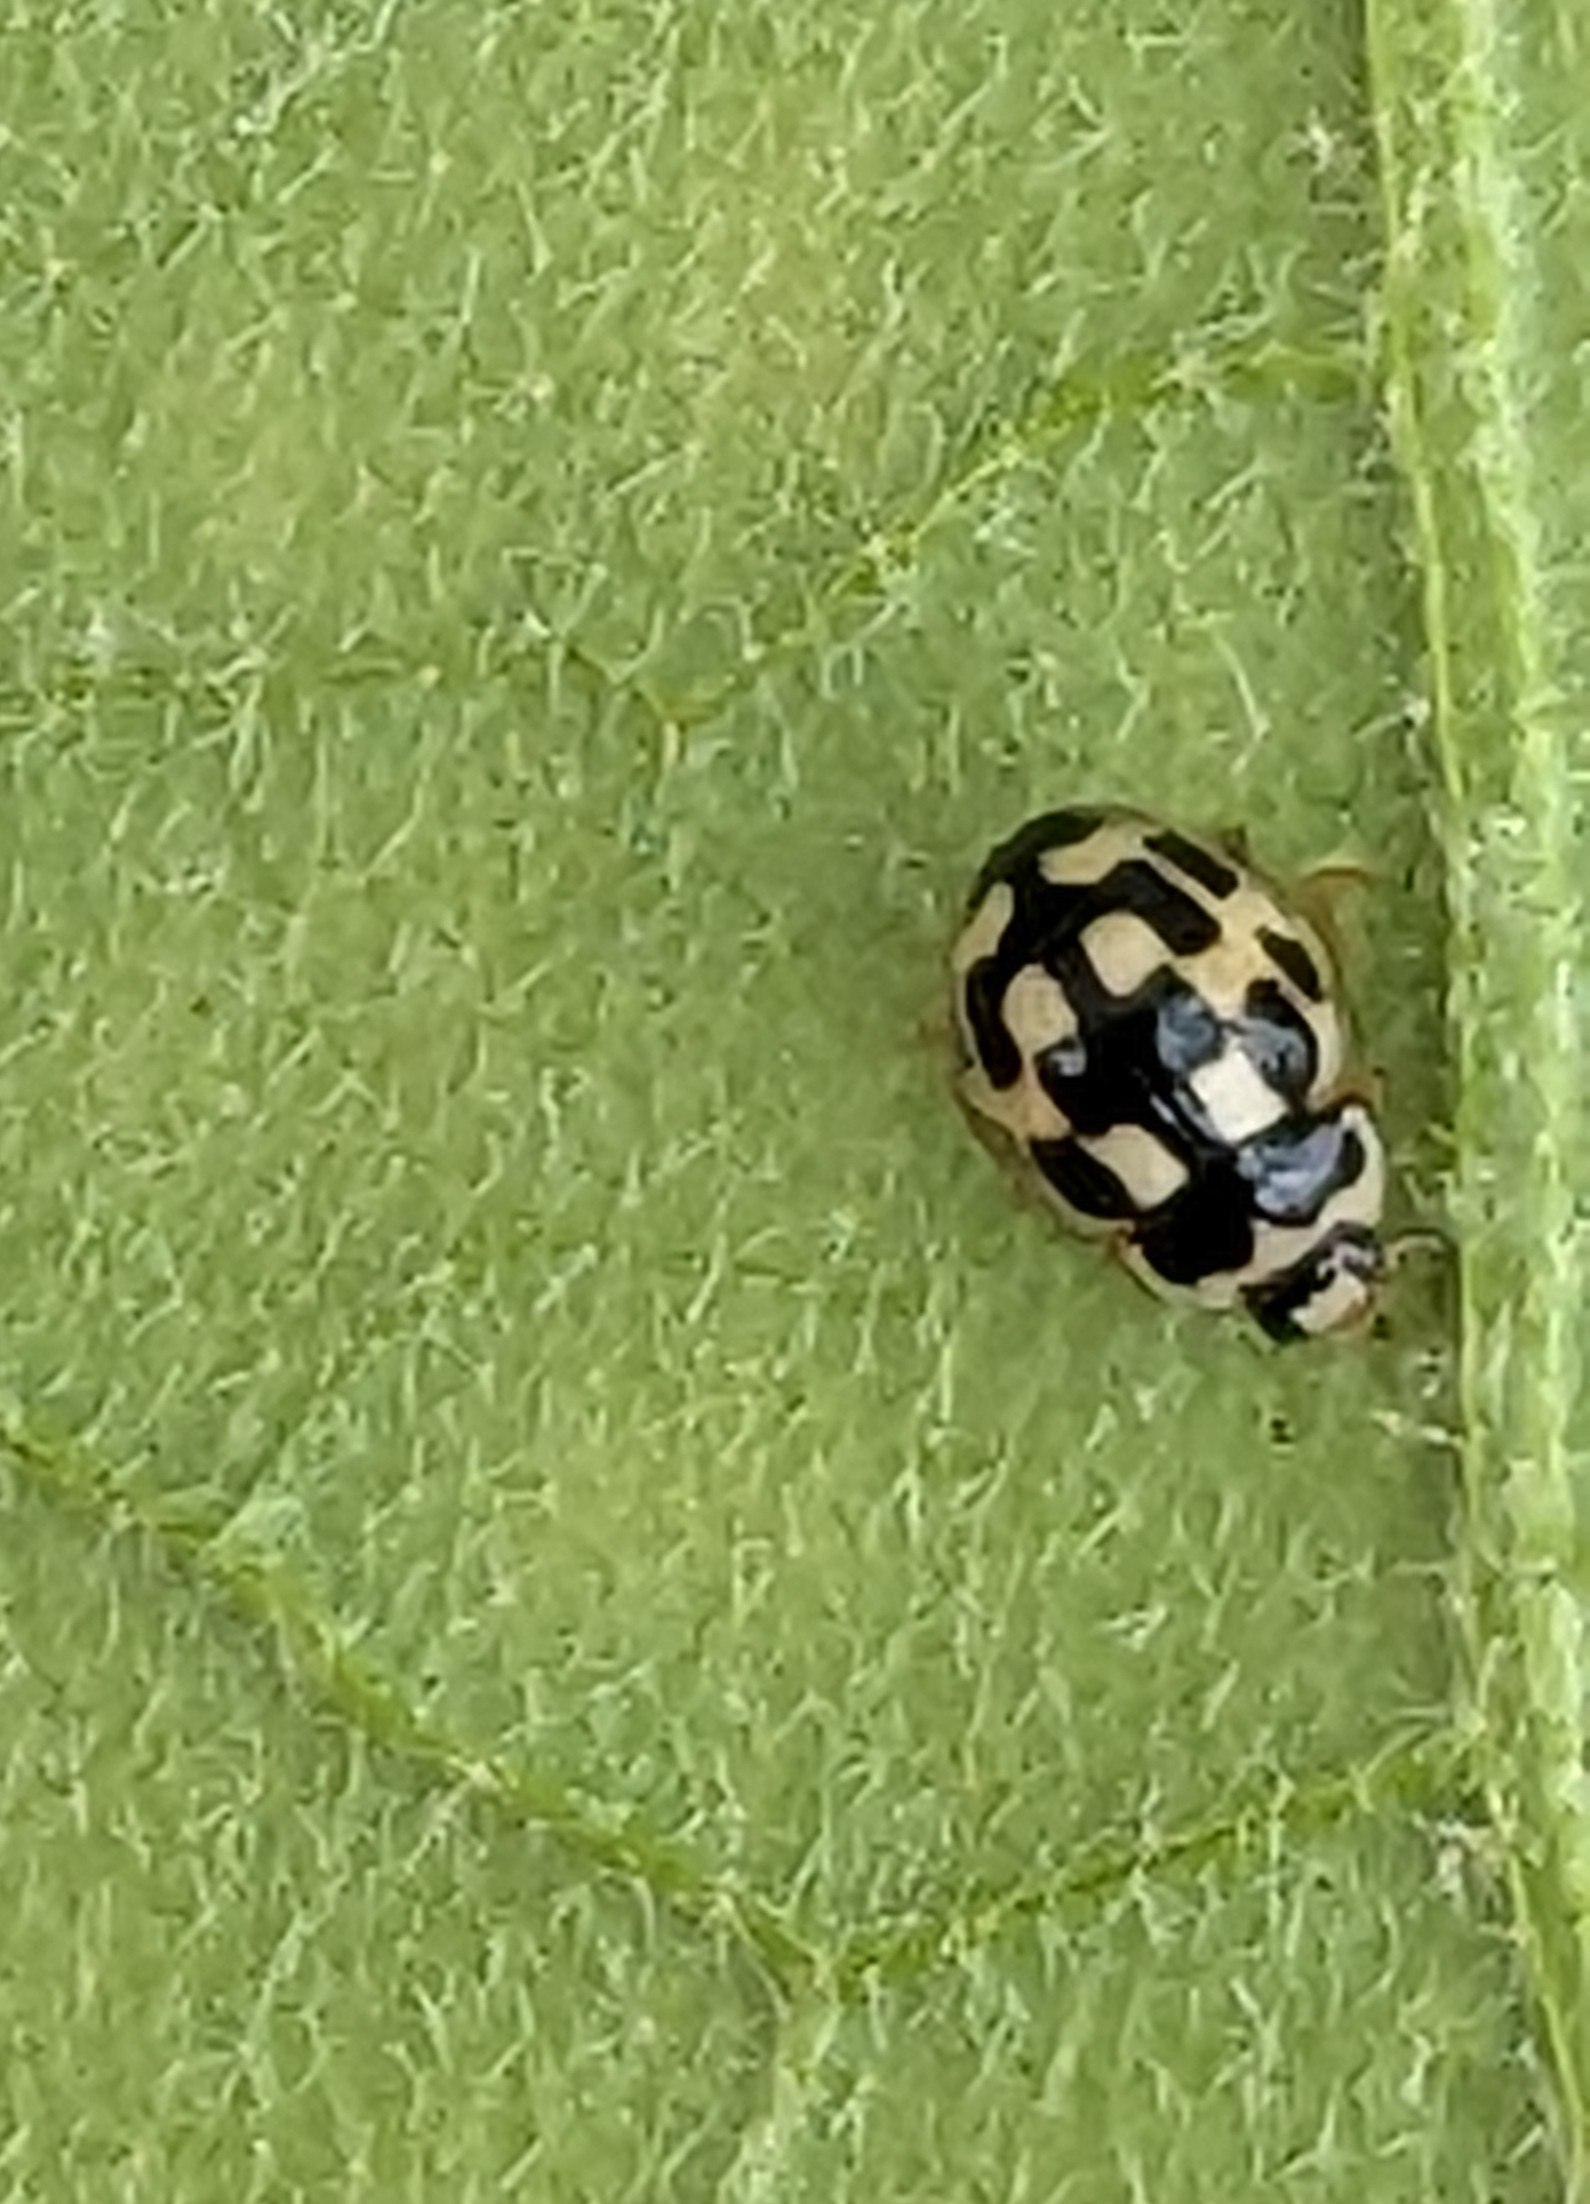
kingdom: Animalia
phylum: Arthropoda
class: Insecta
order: Coleoptera
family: Coccinellidae
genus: Propylaea
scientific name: Propylaea quatuordecimpunctata
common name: Skakbræt
